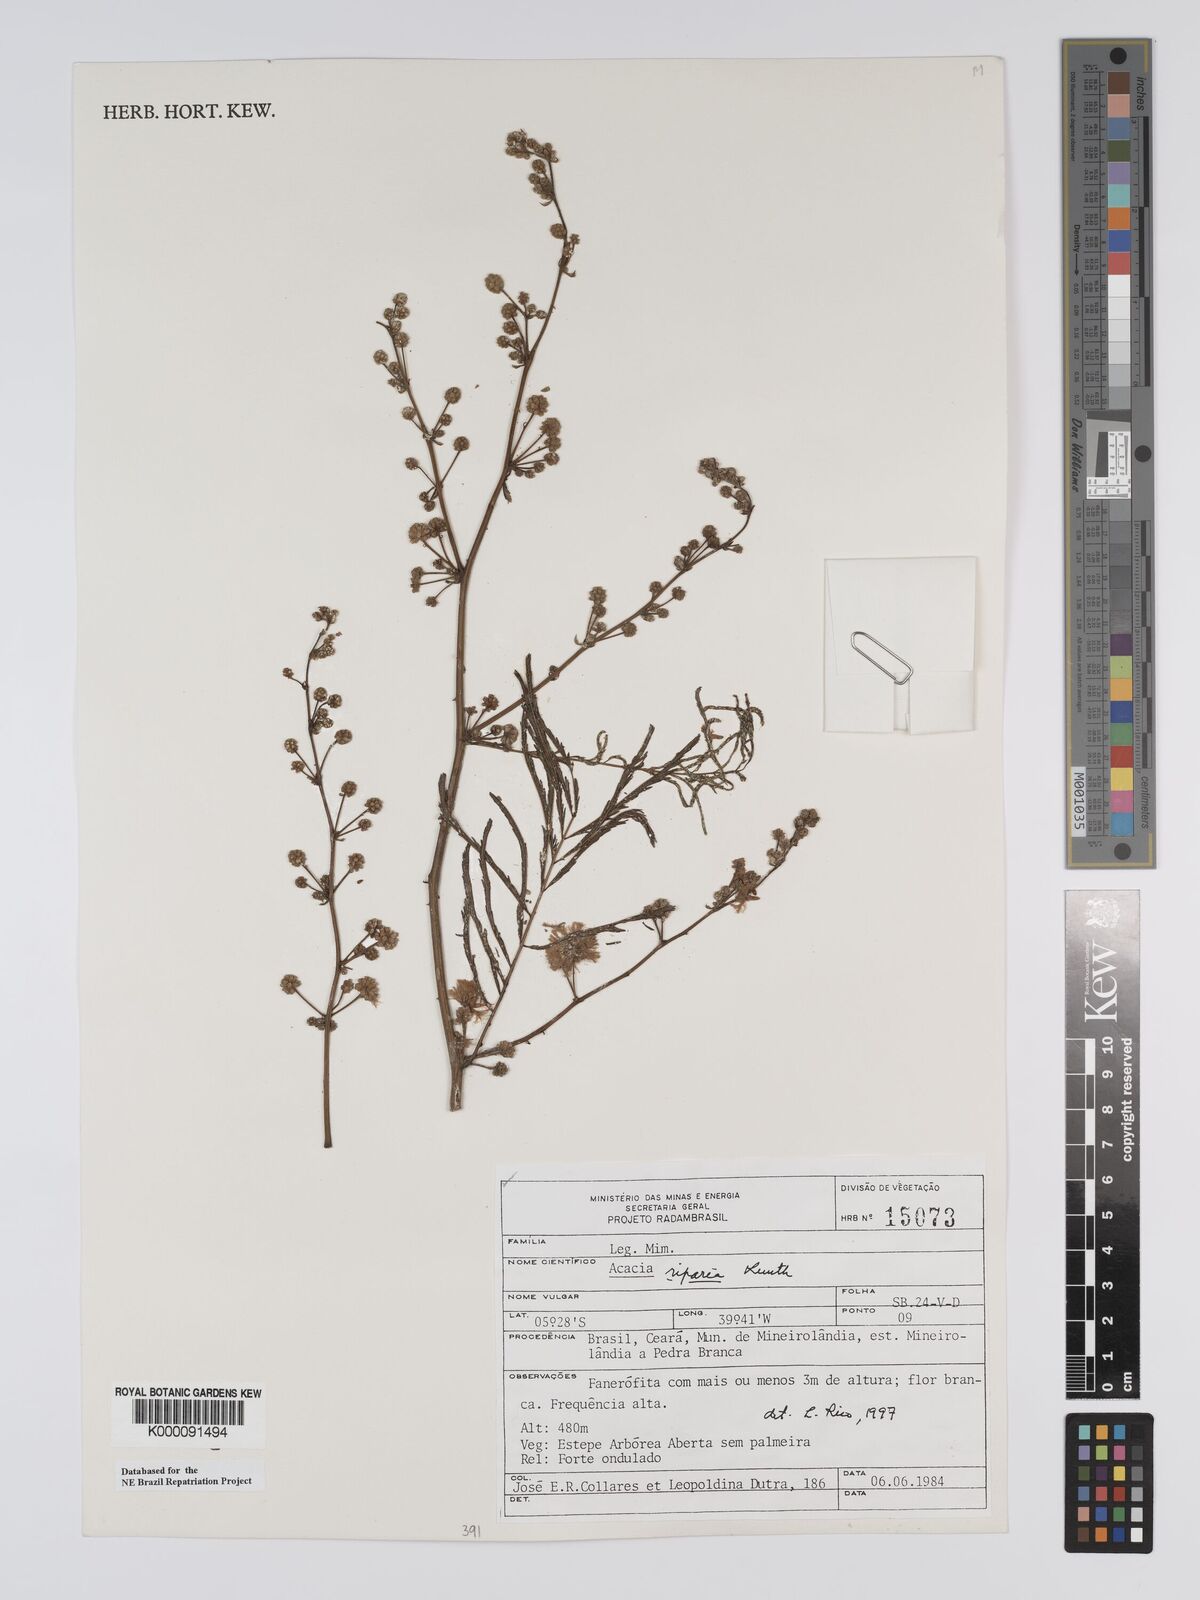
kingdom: Plantae
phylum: Tracheophyta
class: Magnoliopsida
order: Fabales
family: Fabaceae
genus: Senegalia
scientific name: Senegalia riparia
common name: Catch-and-keep
